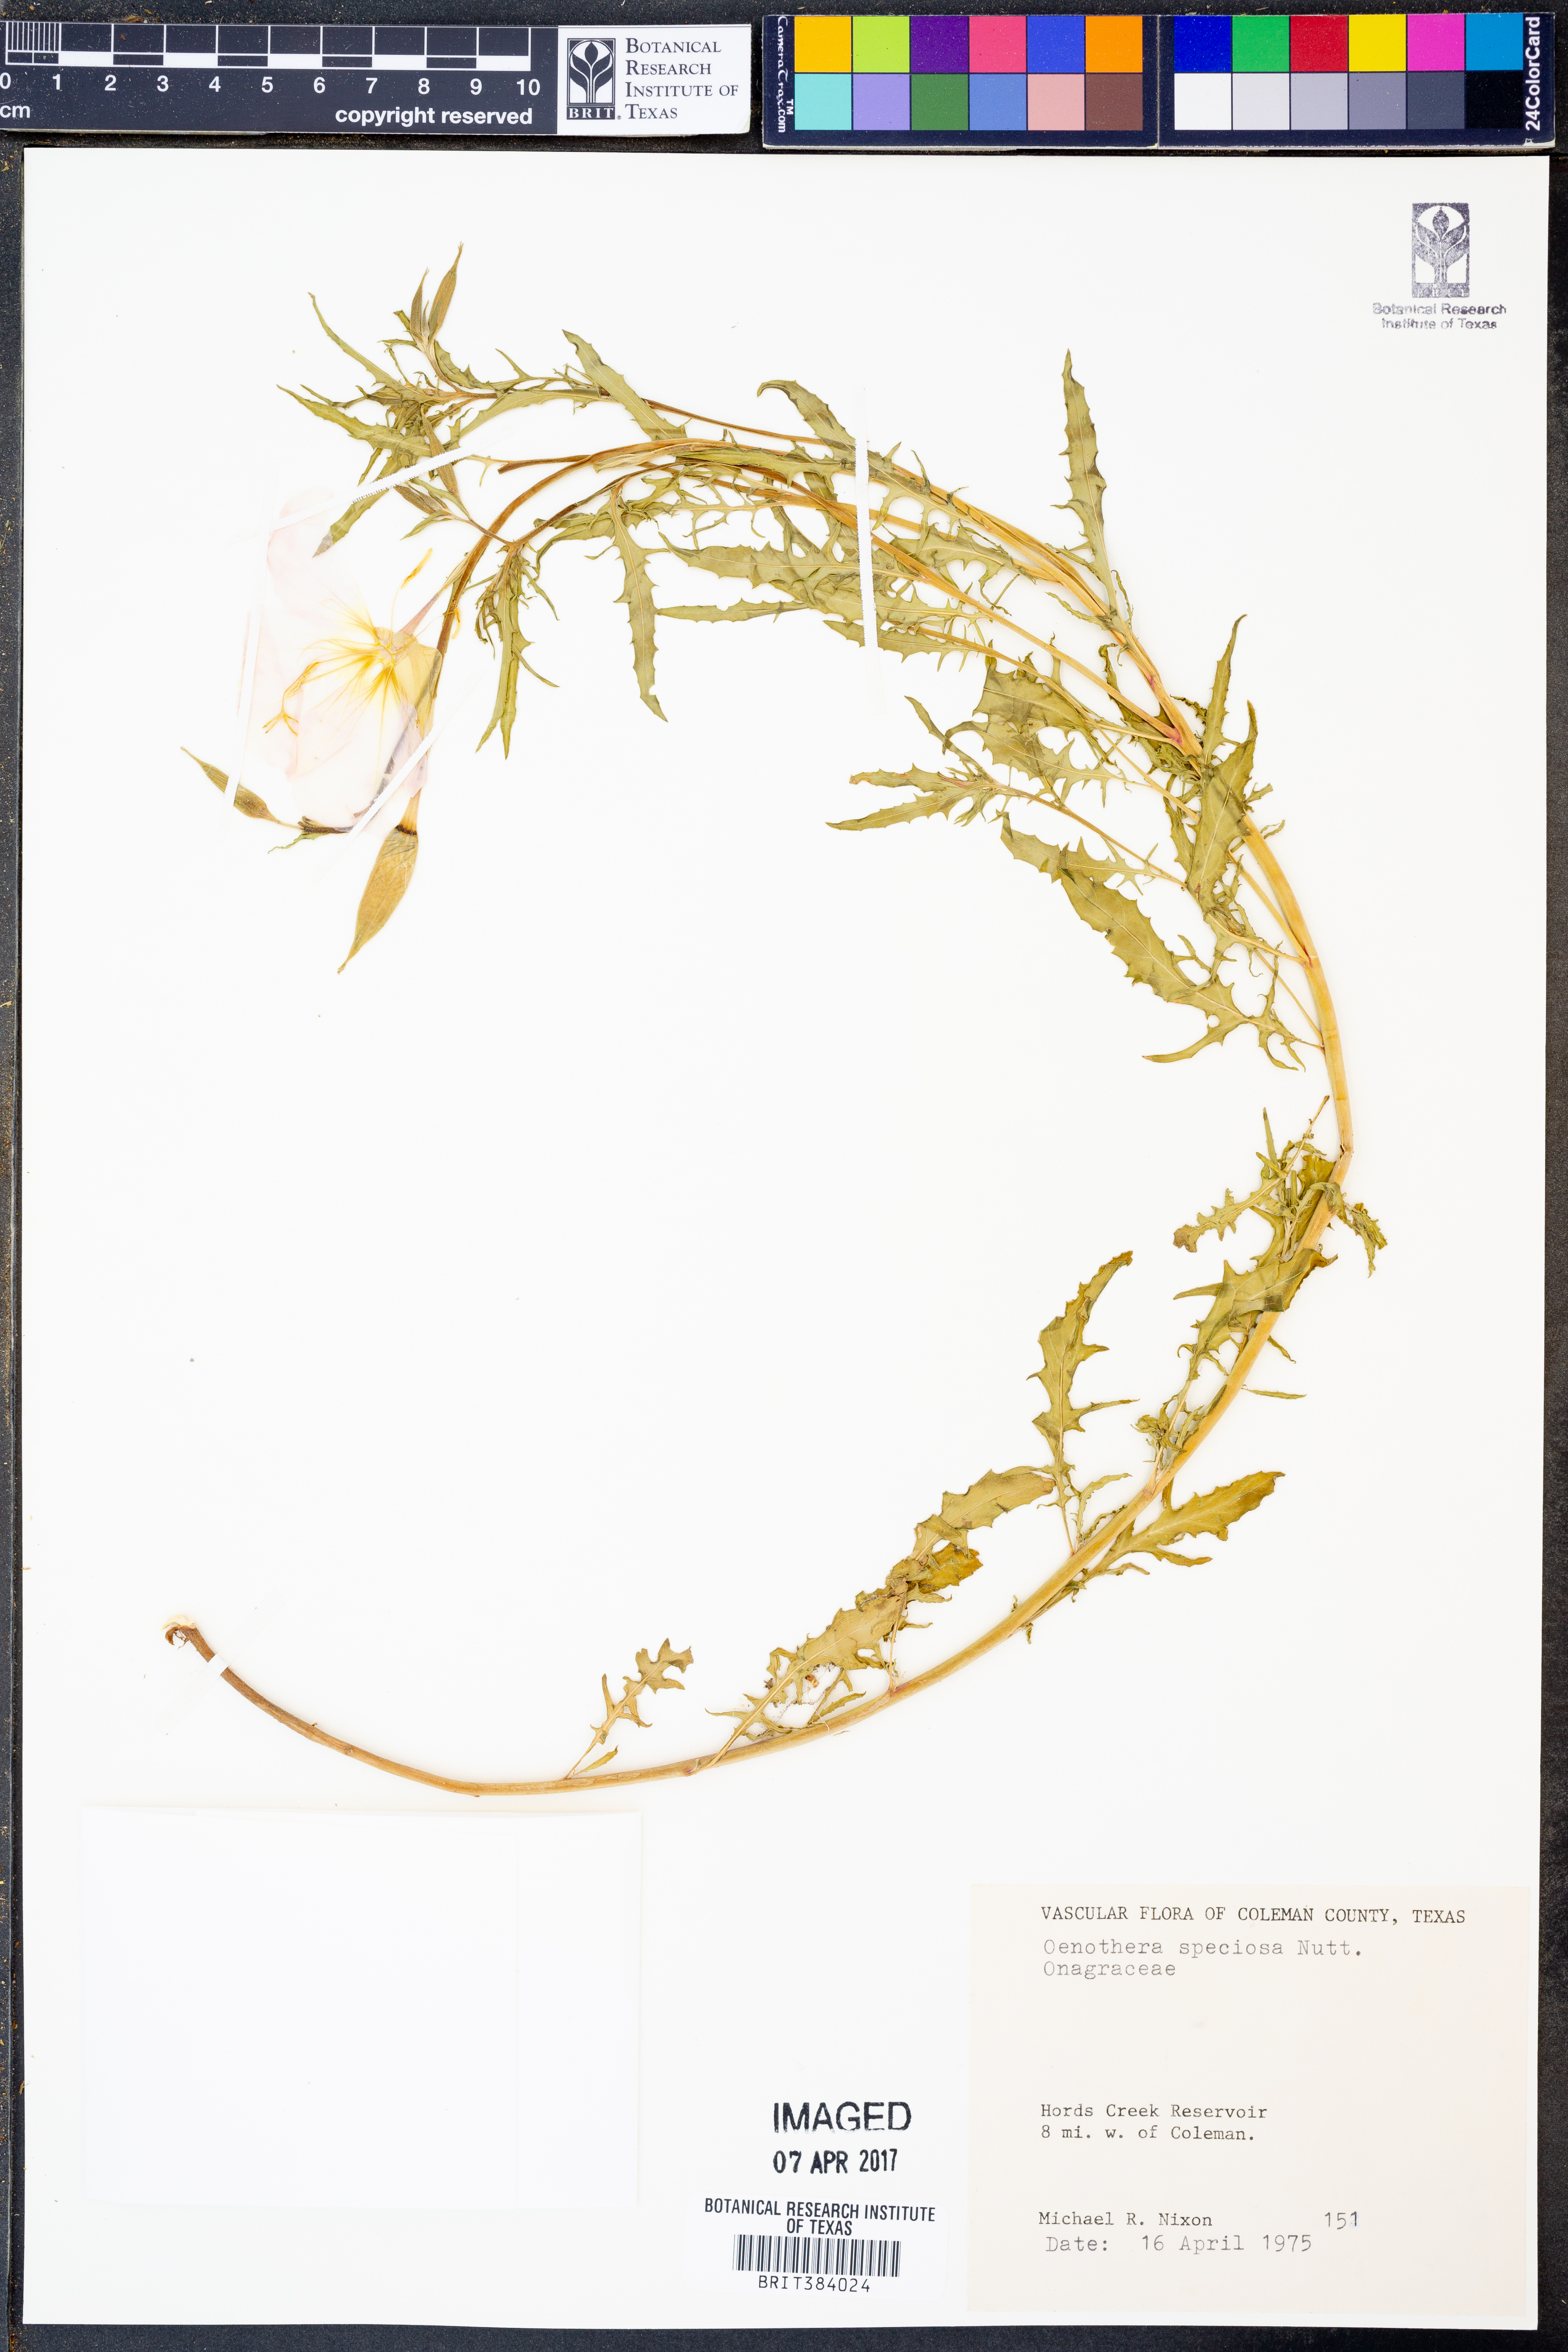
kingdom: Plantae
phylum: Tracheophyta
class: Magnoliopsida
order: Myrtales
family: Onagraceae
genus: Oenothera
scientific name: Oenothera speciosa
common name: White evening-primrose
